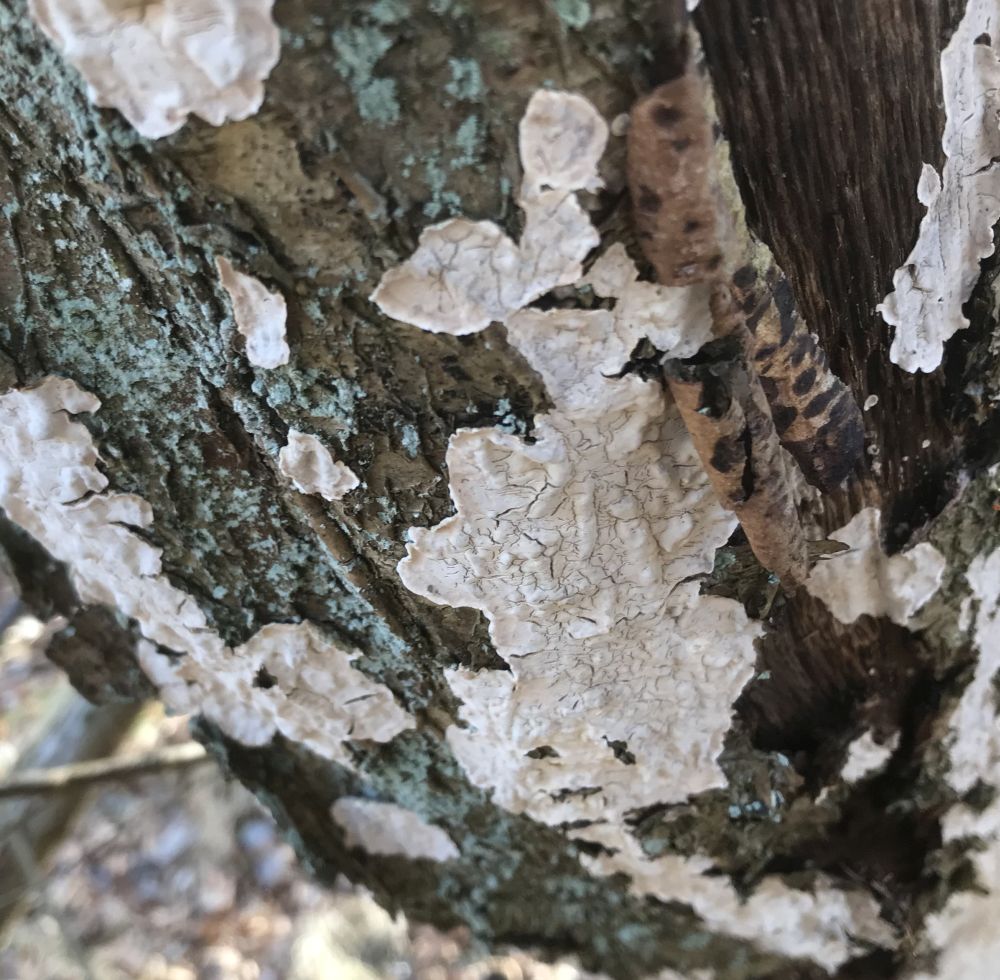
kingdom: Fungi
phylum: Basidiomycota
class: Agaricomycetes
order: Russulales
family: Stereaceae
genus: Stereum
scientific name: Stereum rugosum
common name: rynket lædersvamp
